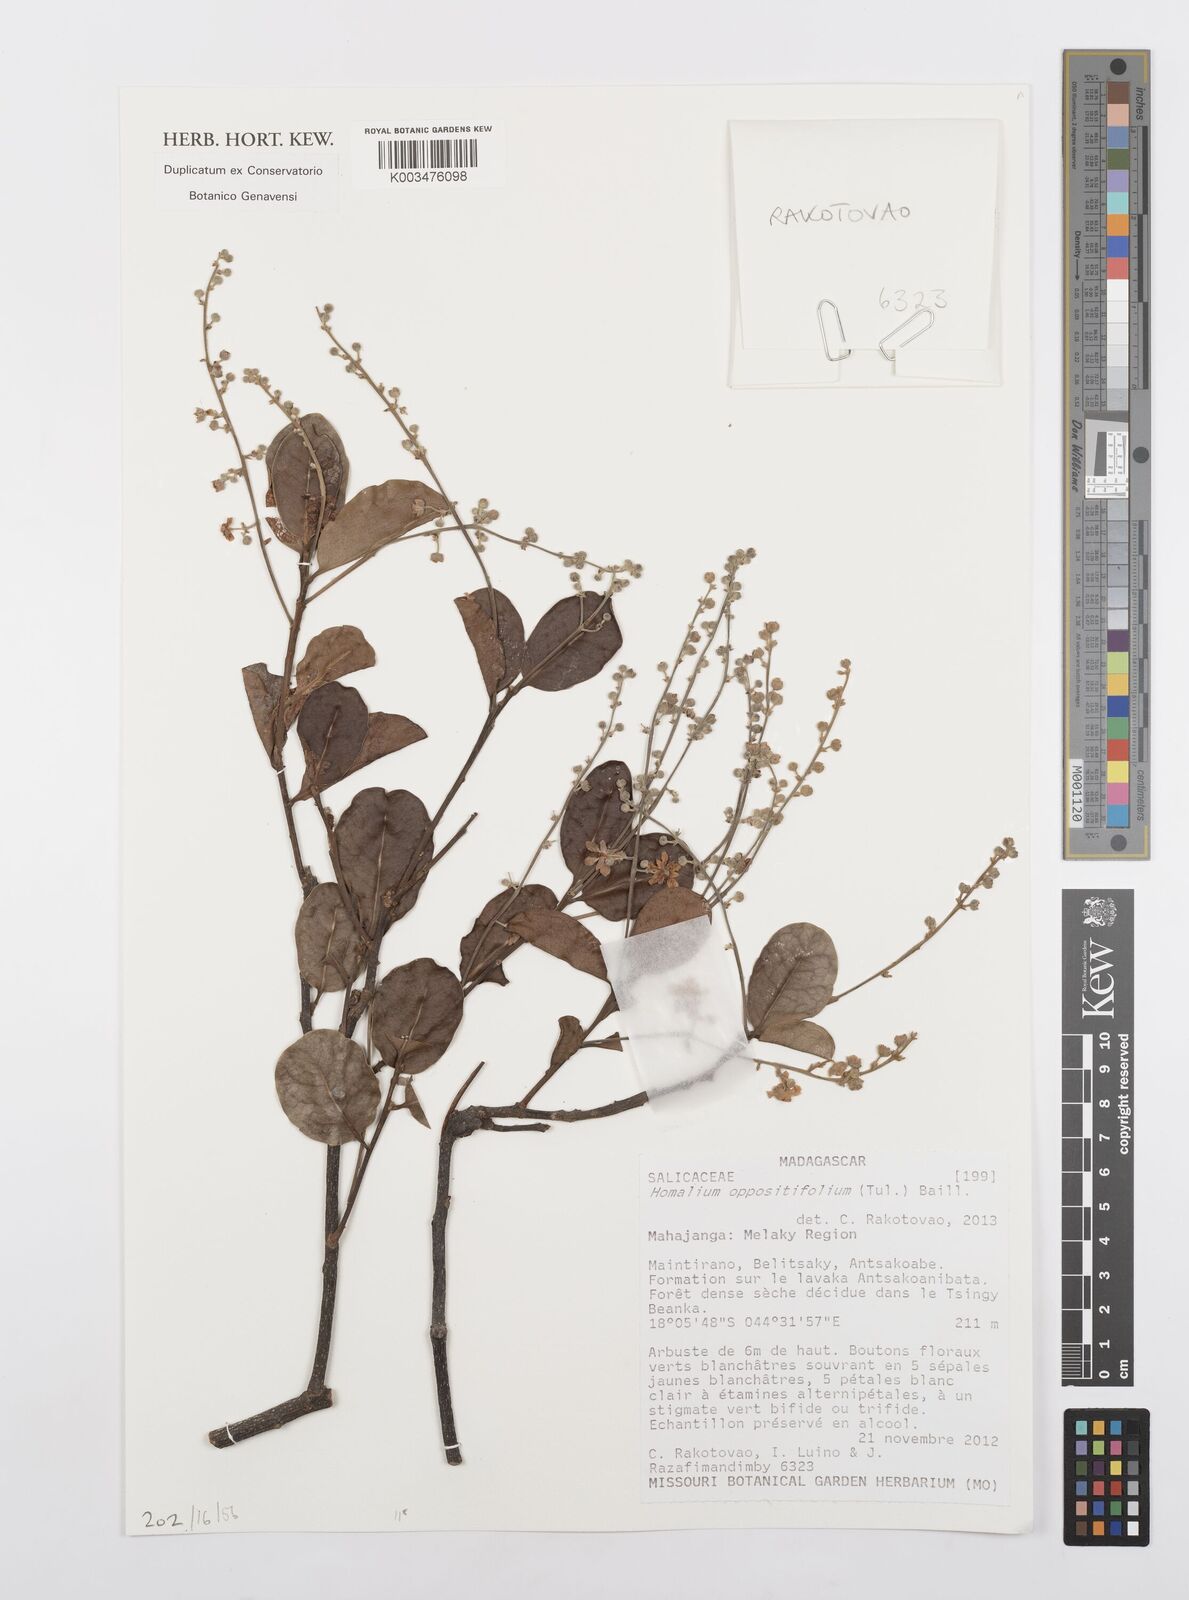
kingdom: Plantae
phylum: Tracheophyta
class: Magnoliopsida
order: Malpighiales
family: Salicaceae
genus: Homalium
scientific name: Homalium oppositifolium
